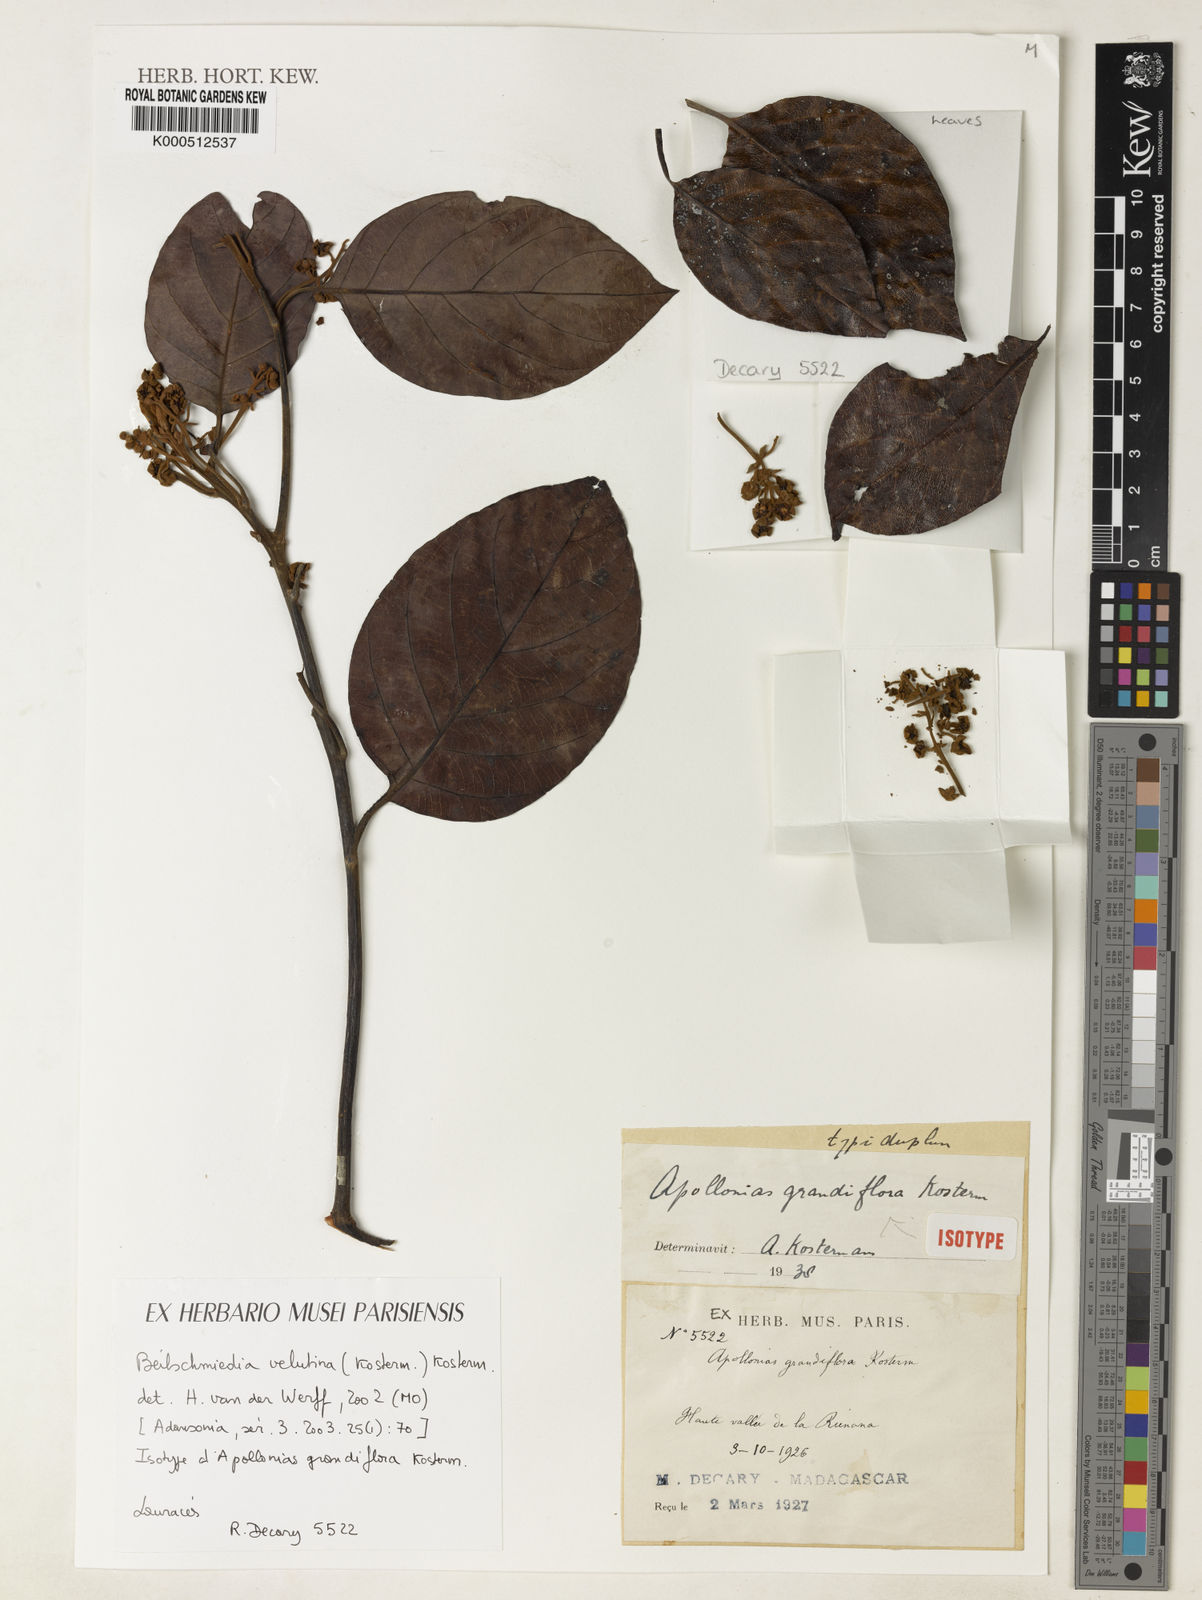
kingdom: Plantae
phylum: Tracheophyta
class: Magnoliopsida
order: Laurales
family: Lauraceae
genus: Beilschmiedia
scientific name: Beilschmiedia velutina
